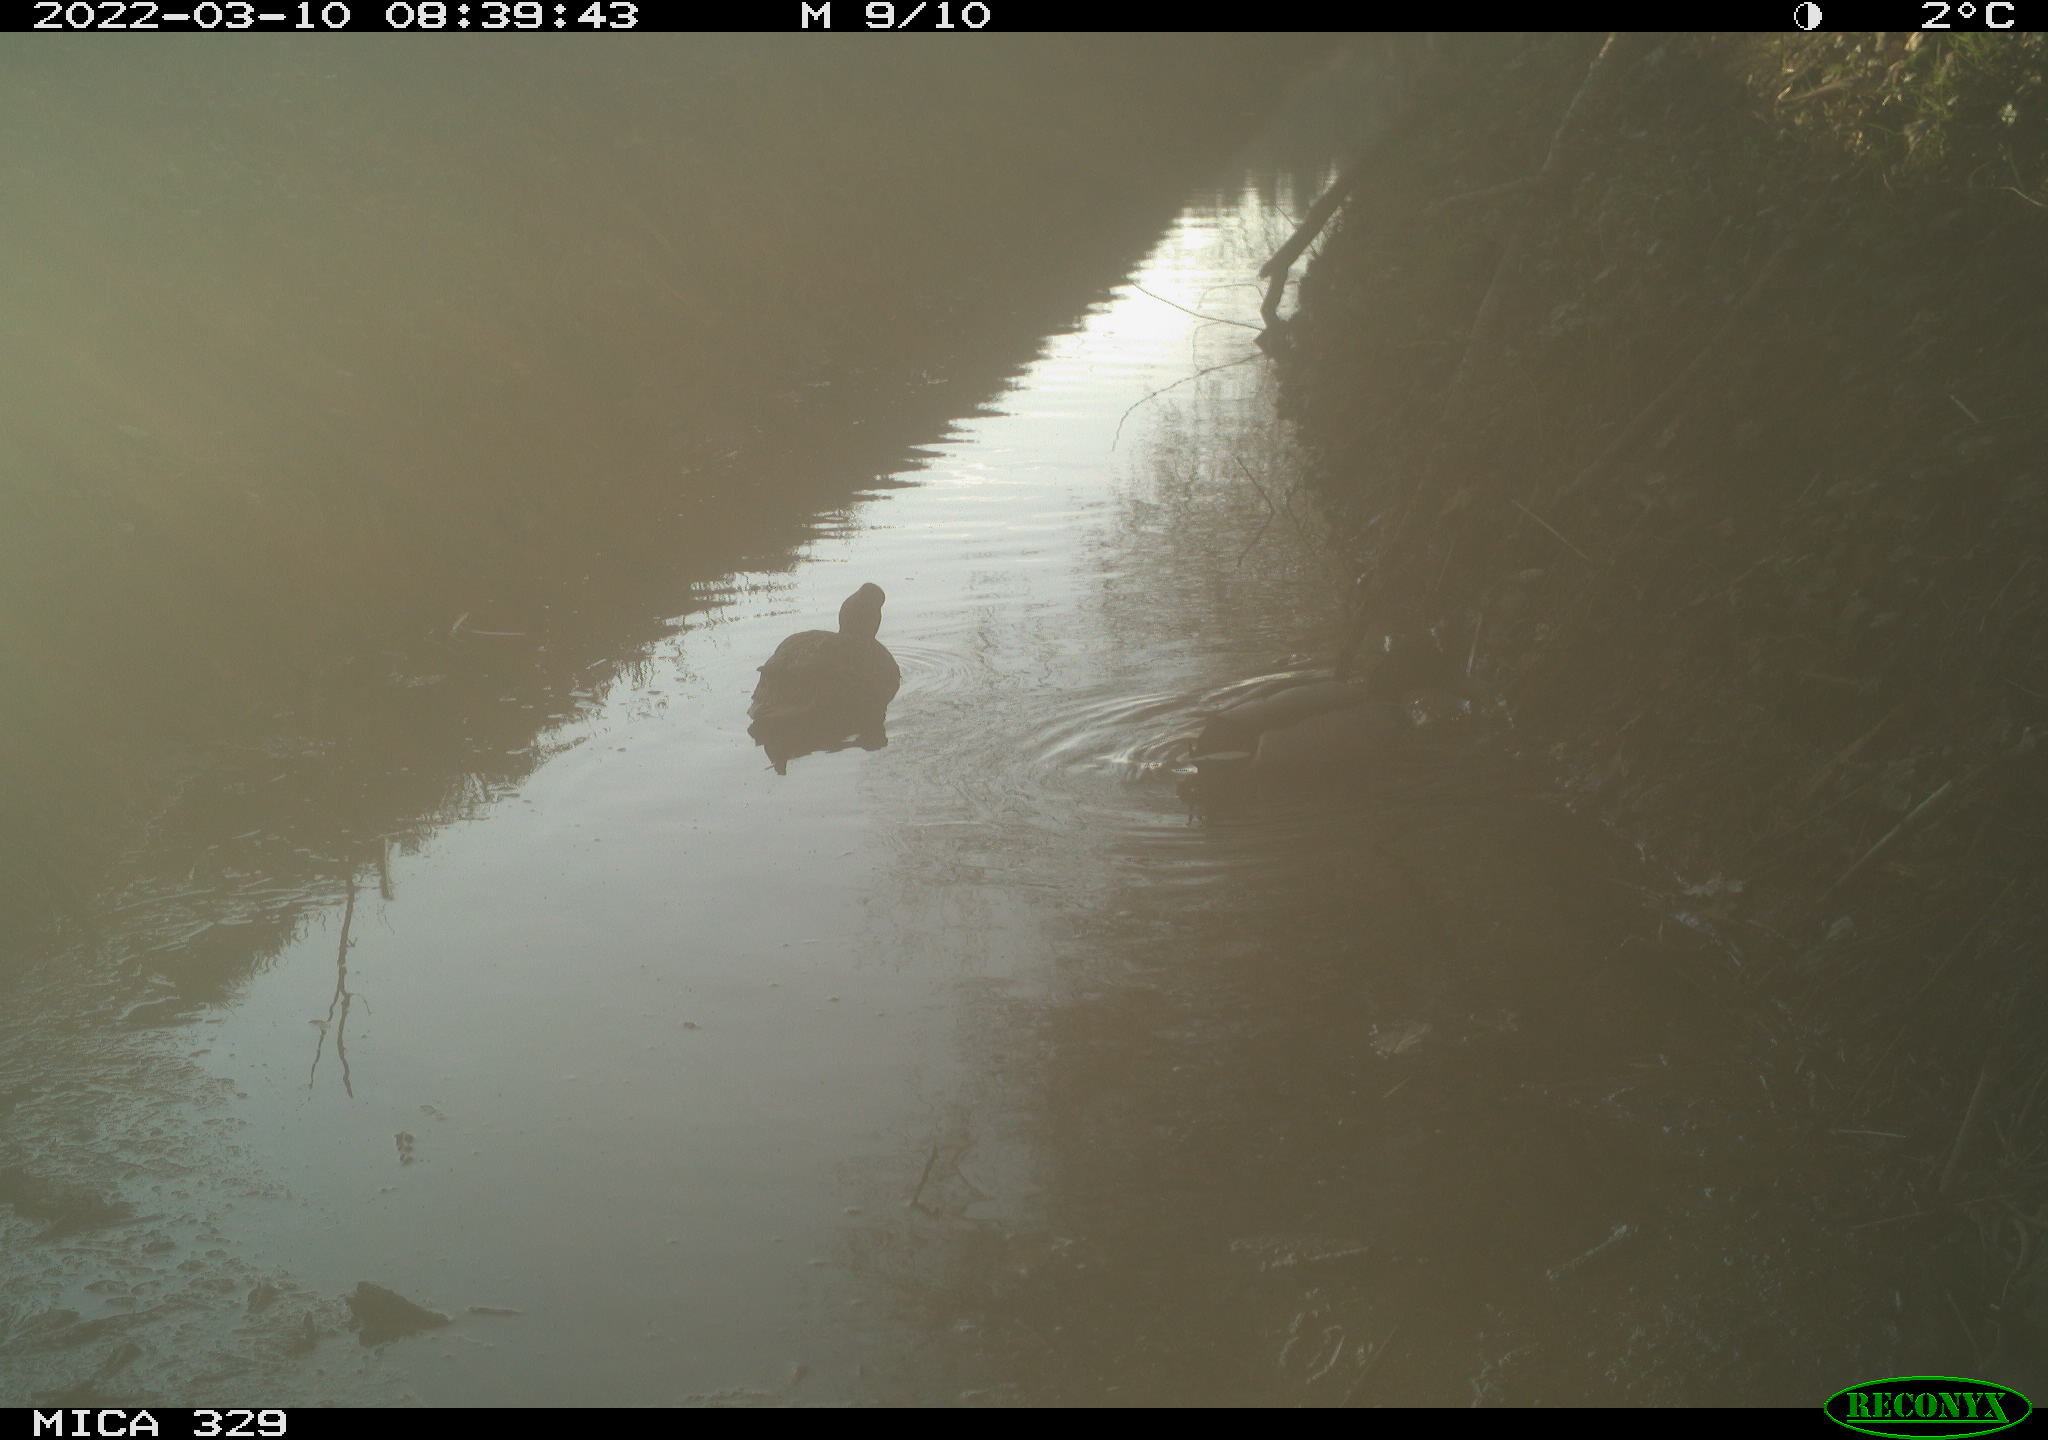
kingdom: Animalia
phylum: Chordata
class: Aves
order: Anseriformes
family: Anatidae
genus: Anas
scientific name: Anas platyrhynchos
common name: Mallard
